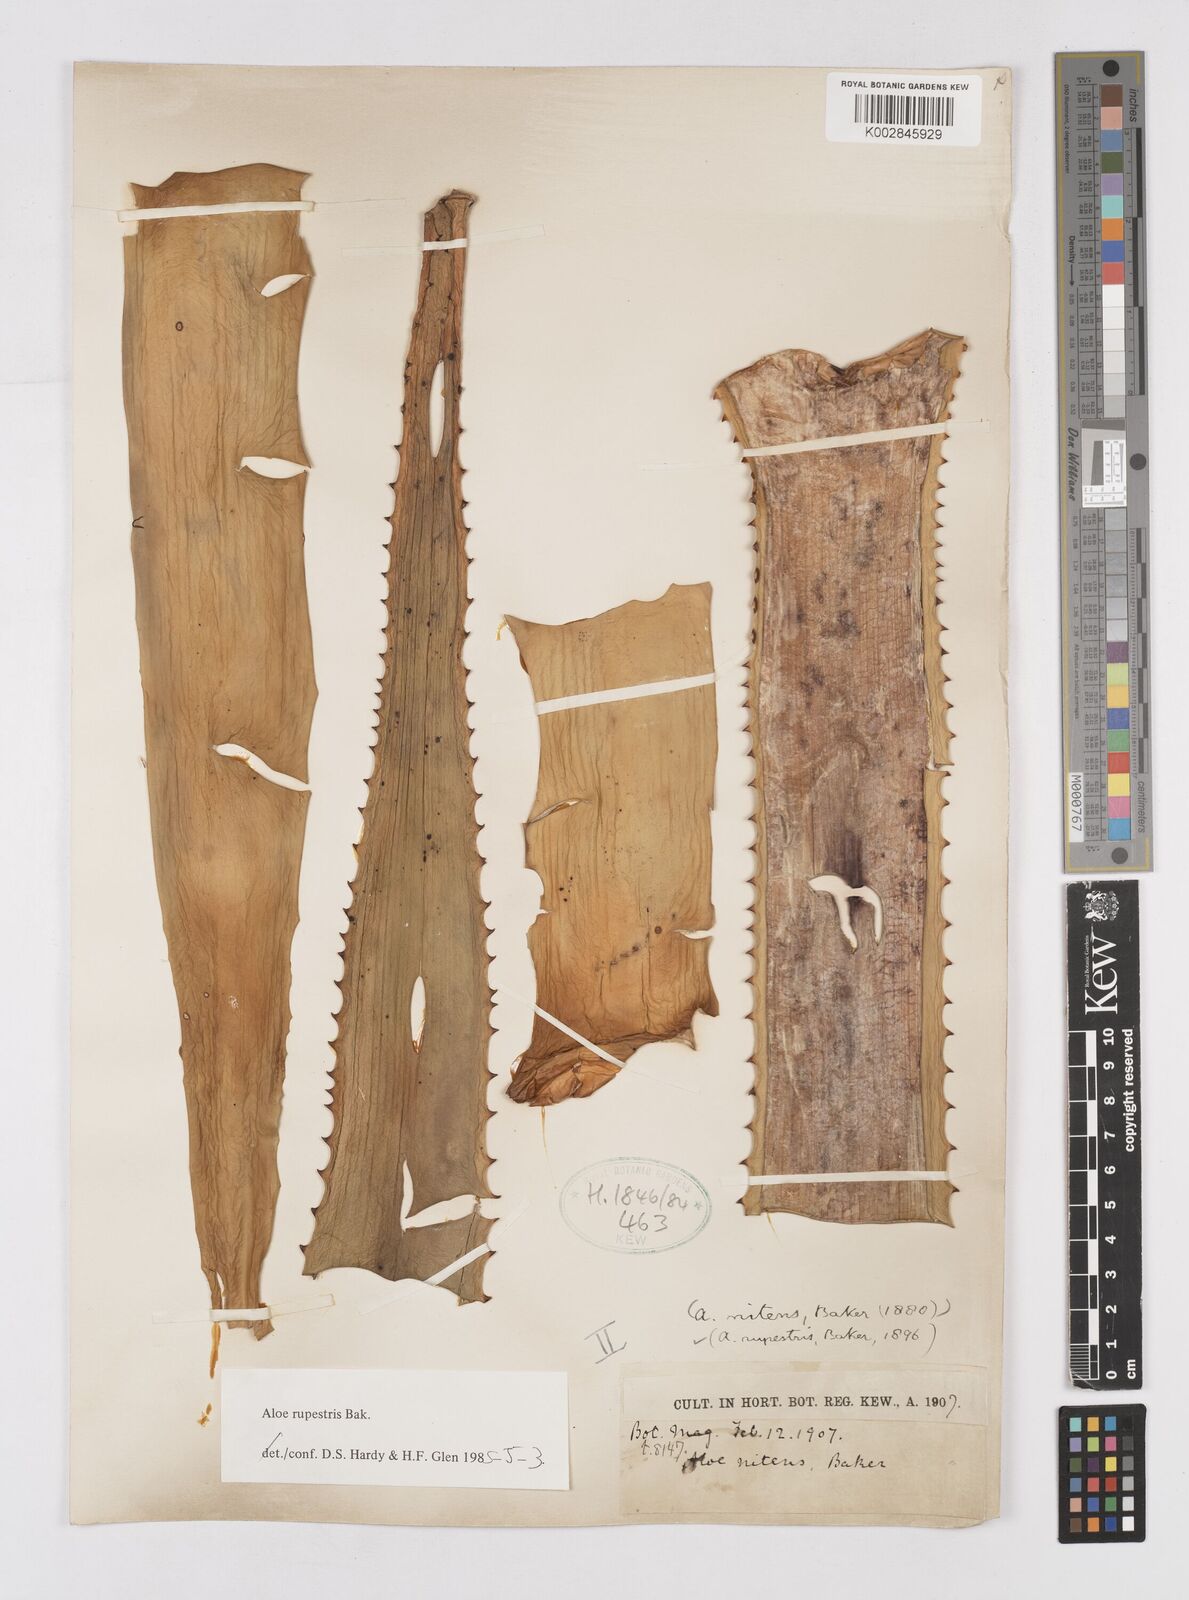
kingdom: Plantae
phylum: Tracheophyta
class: Liliopsida
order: Asparagales
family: Asphodelaceae
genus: Aloe
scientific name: Aloe rupestris
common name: Bottle-brush aloe
